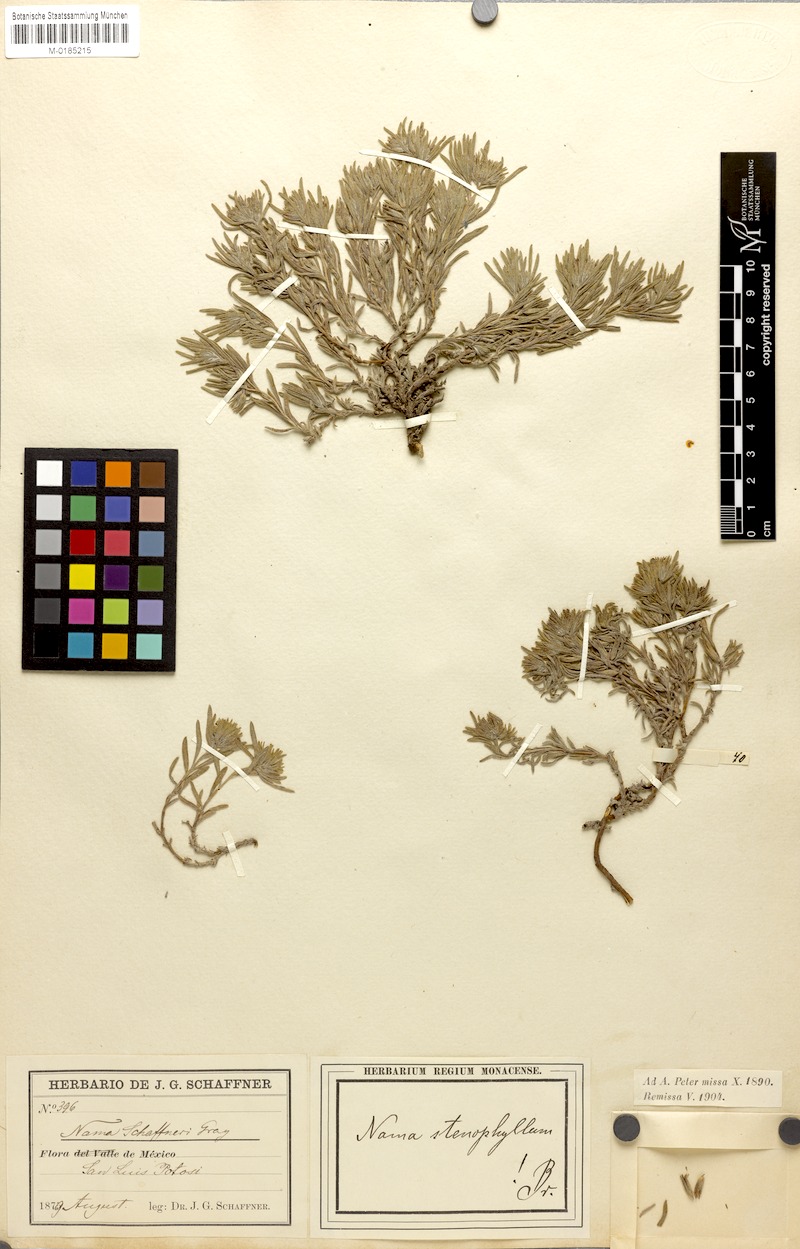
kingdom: Plantae
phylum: Tracheophyta
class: Magnoliopsida
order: Boraginales
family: Namaceae
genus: Nama
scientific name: Nama stenophylla
